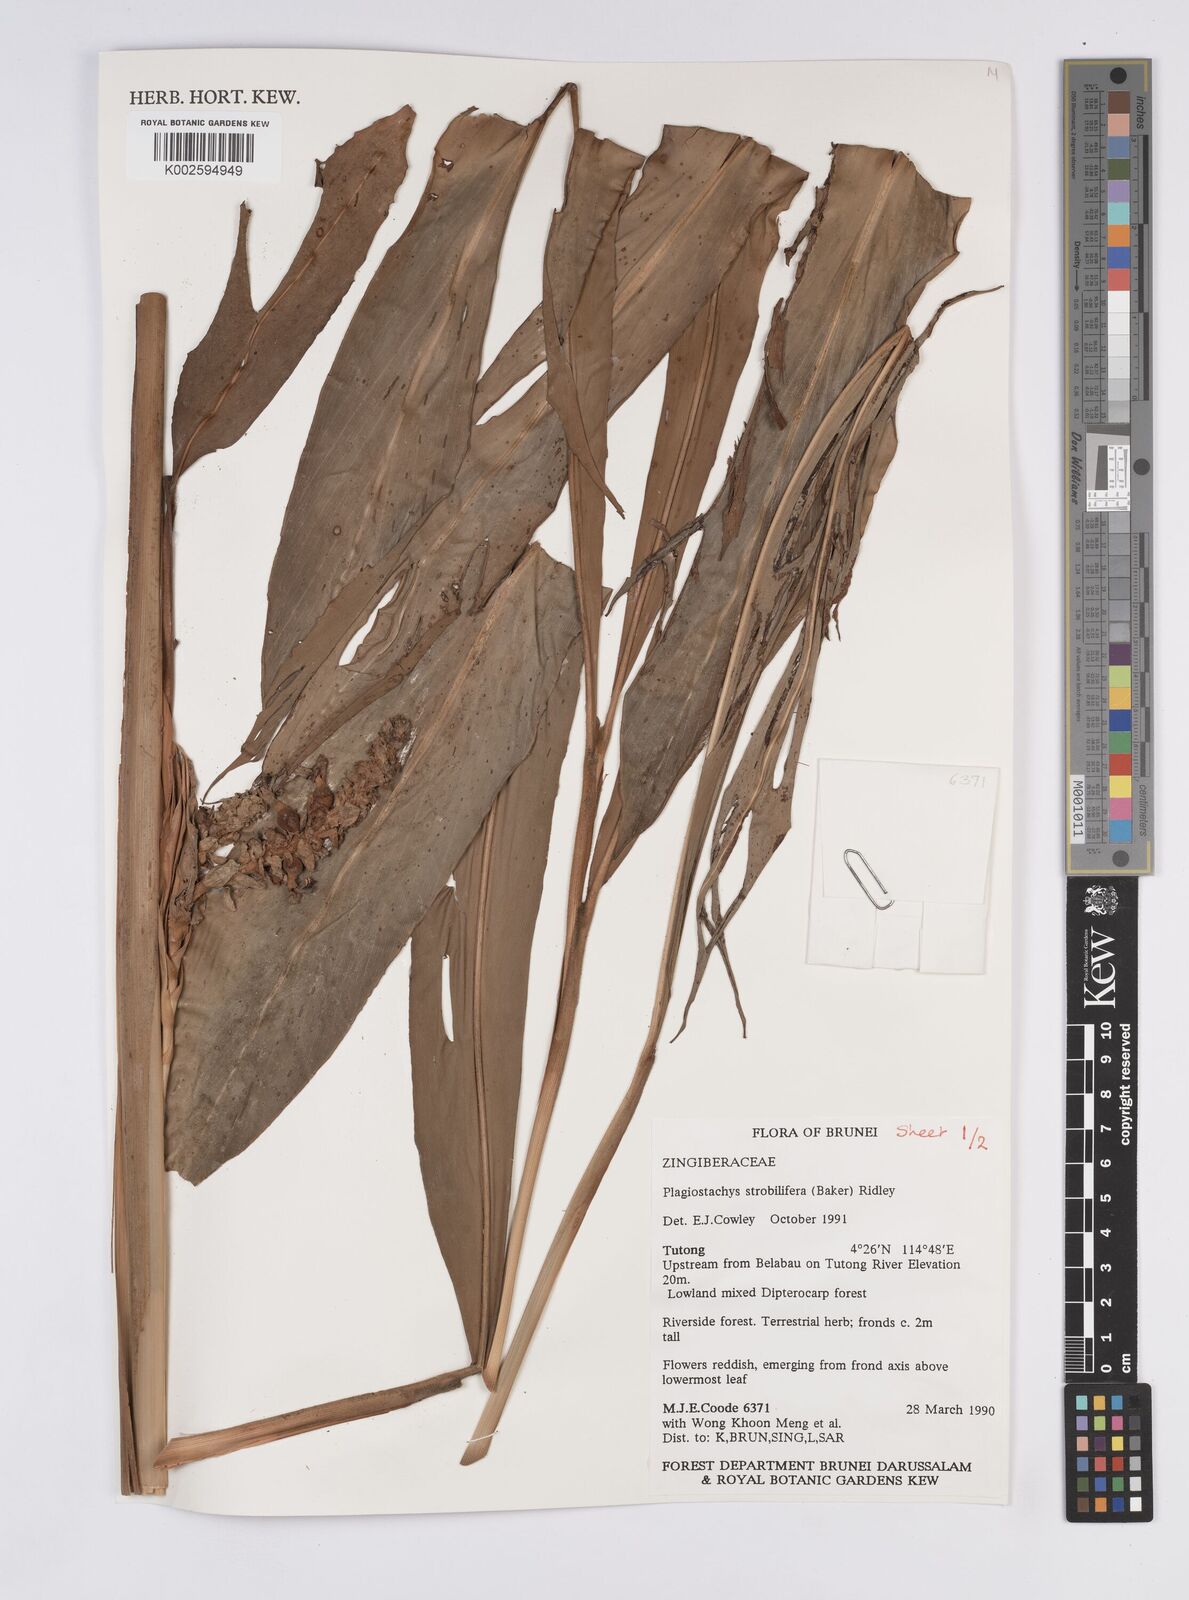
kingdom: Plantae
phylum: Tracheophyta
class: Liliopsida
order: Zingiberales
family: Zingiberaceae
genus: Plagiostachys
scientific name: Plagiostachys strobilifera
